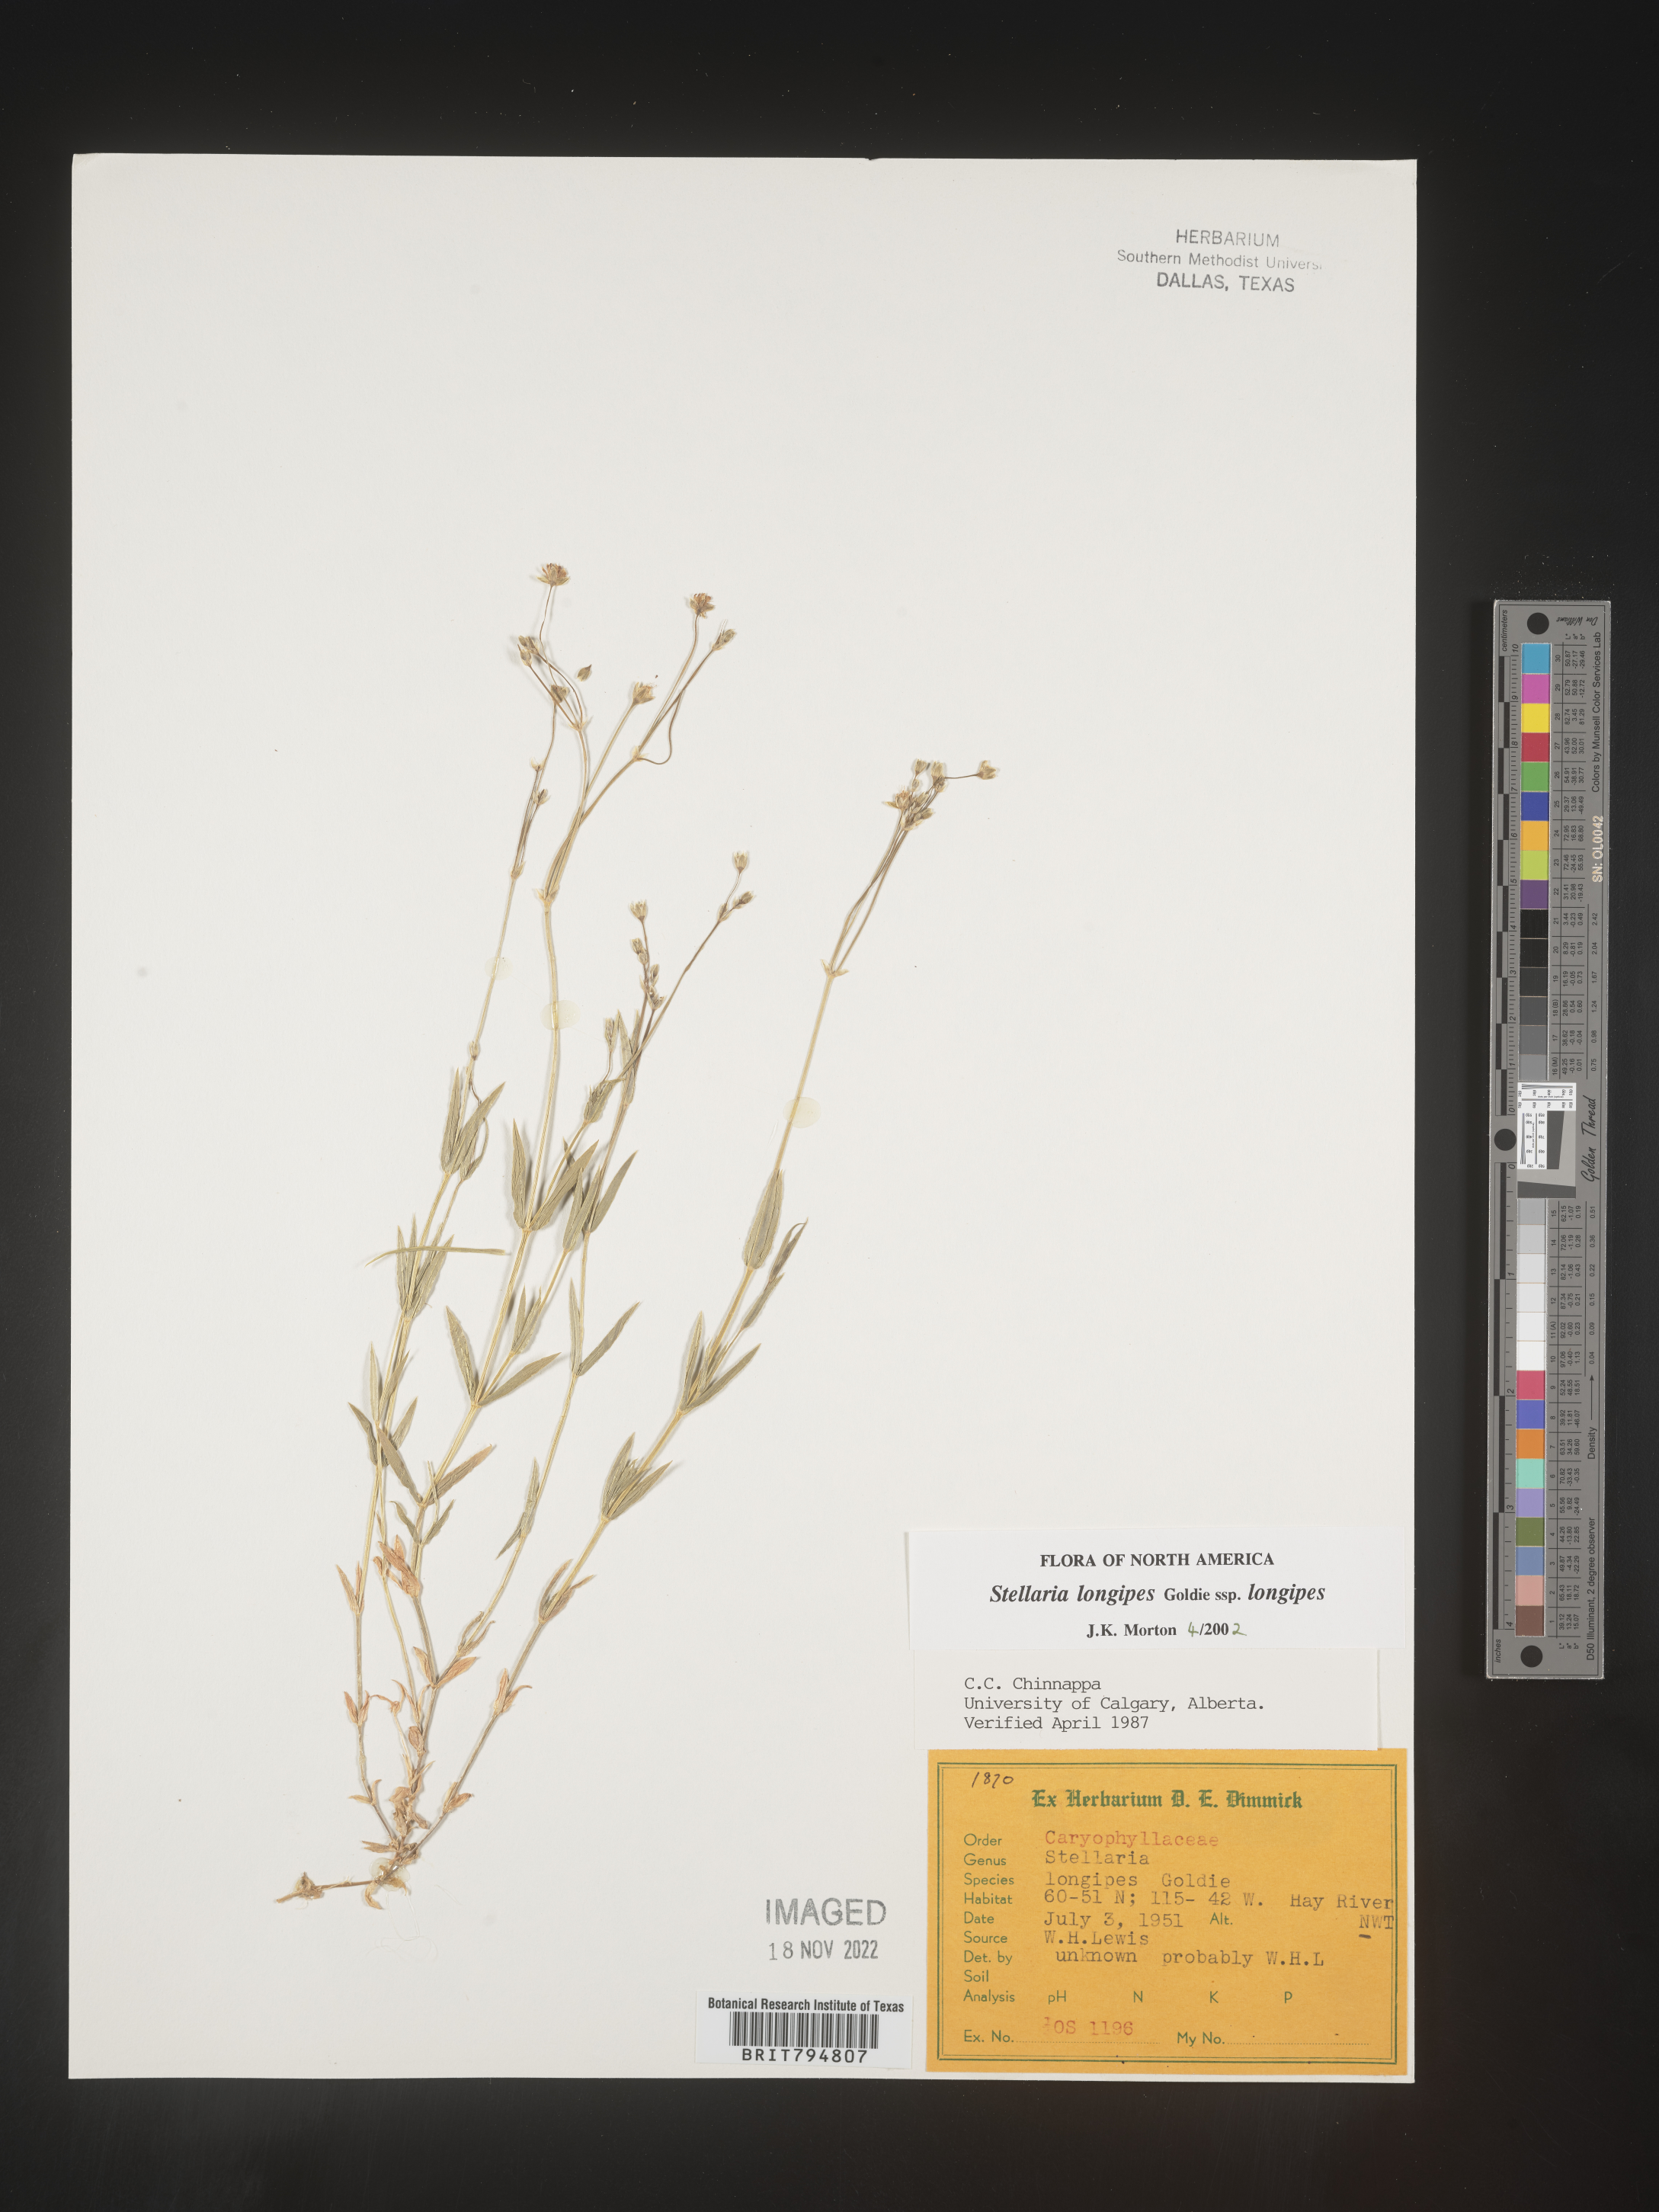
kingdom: Plantae
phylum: Tracheophyta
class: Magnoliopsida
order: Caryophyllales
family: Caryophyllaceae
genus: Stellaria
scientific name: Stellaria longipes
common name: Goldie's starwort
